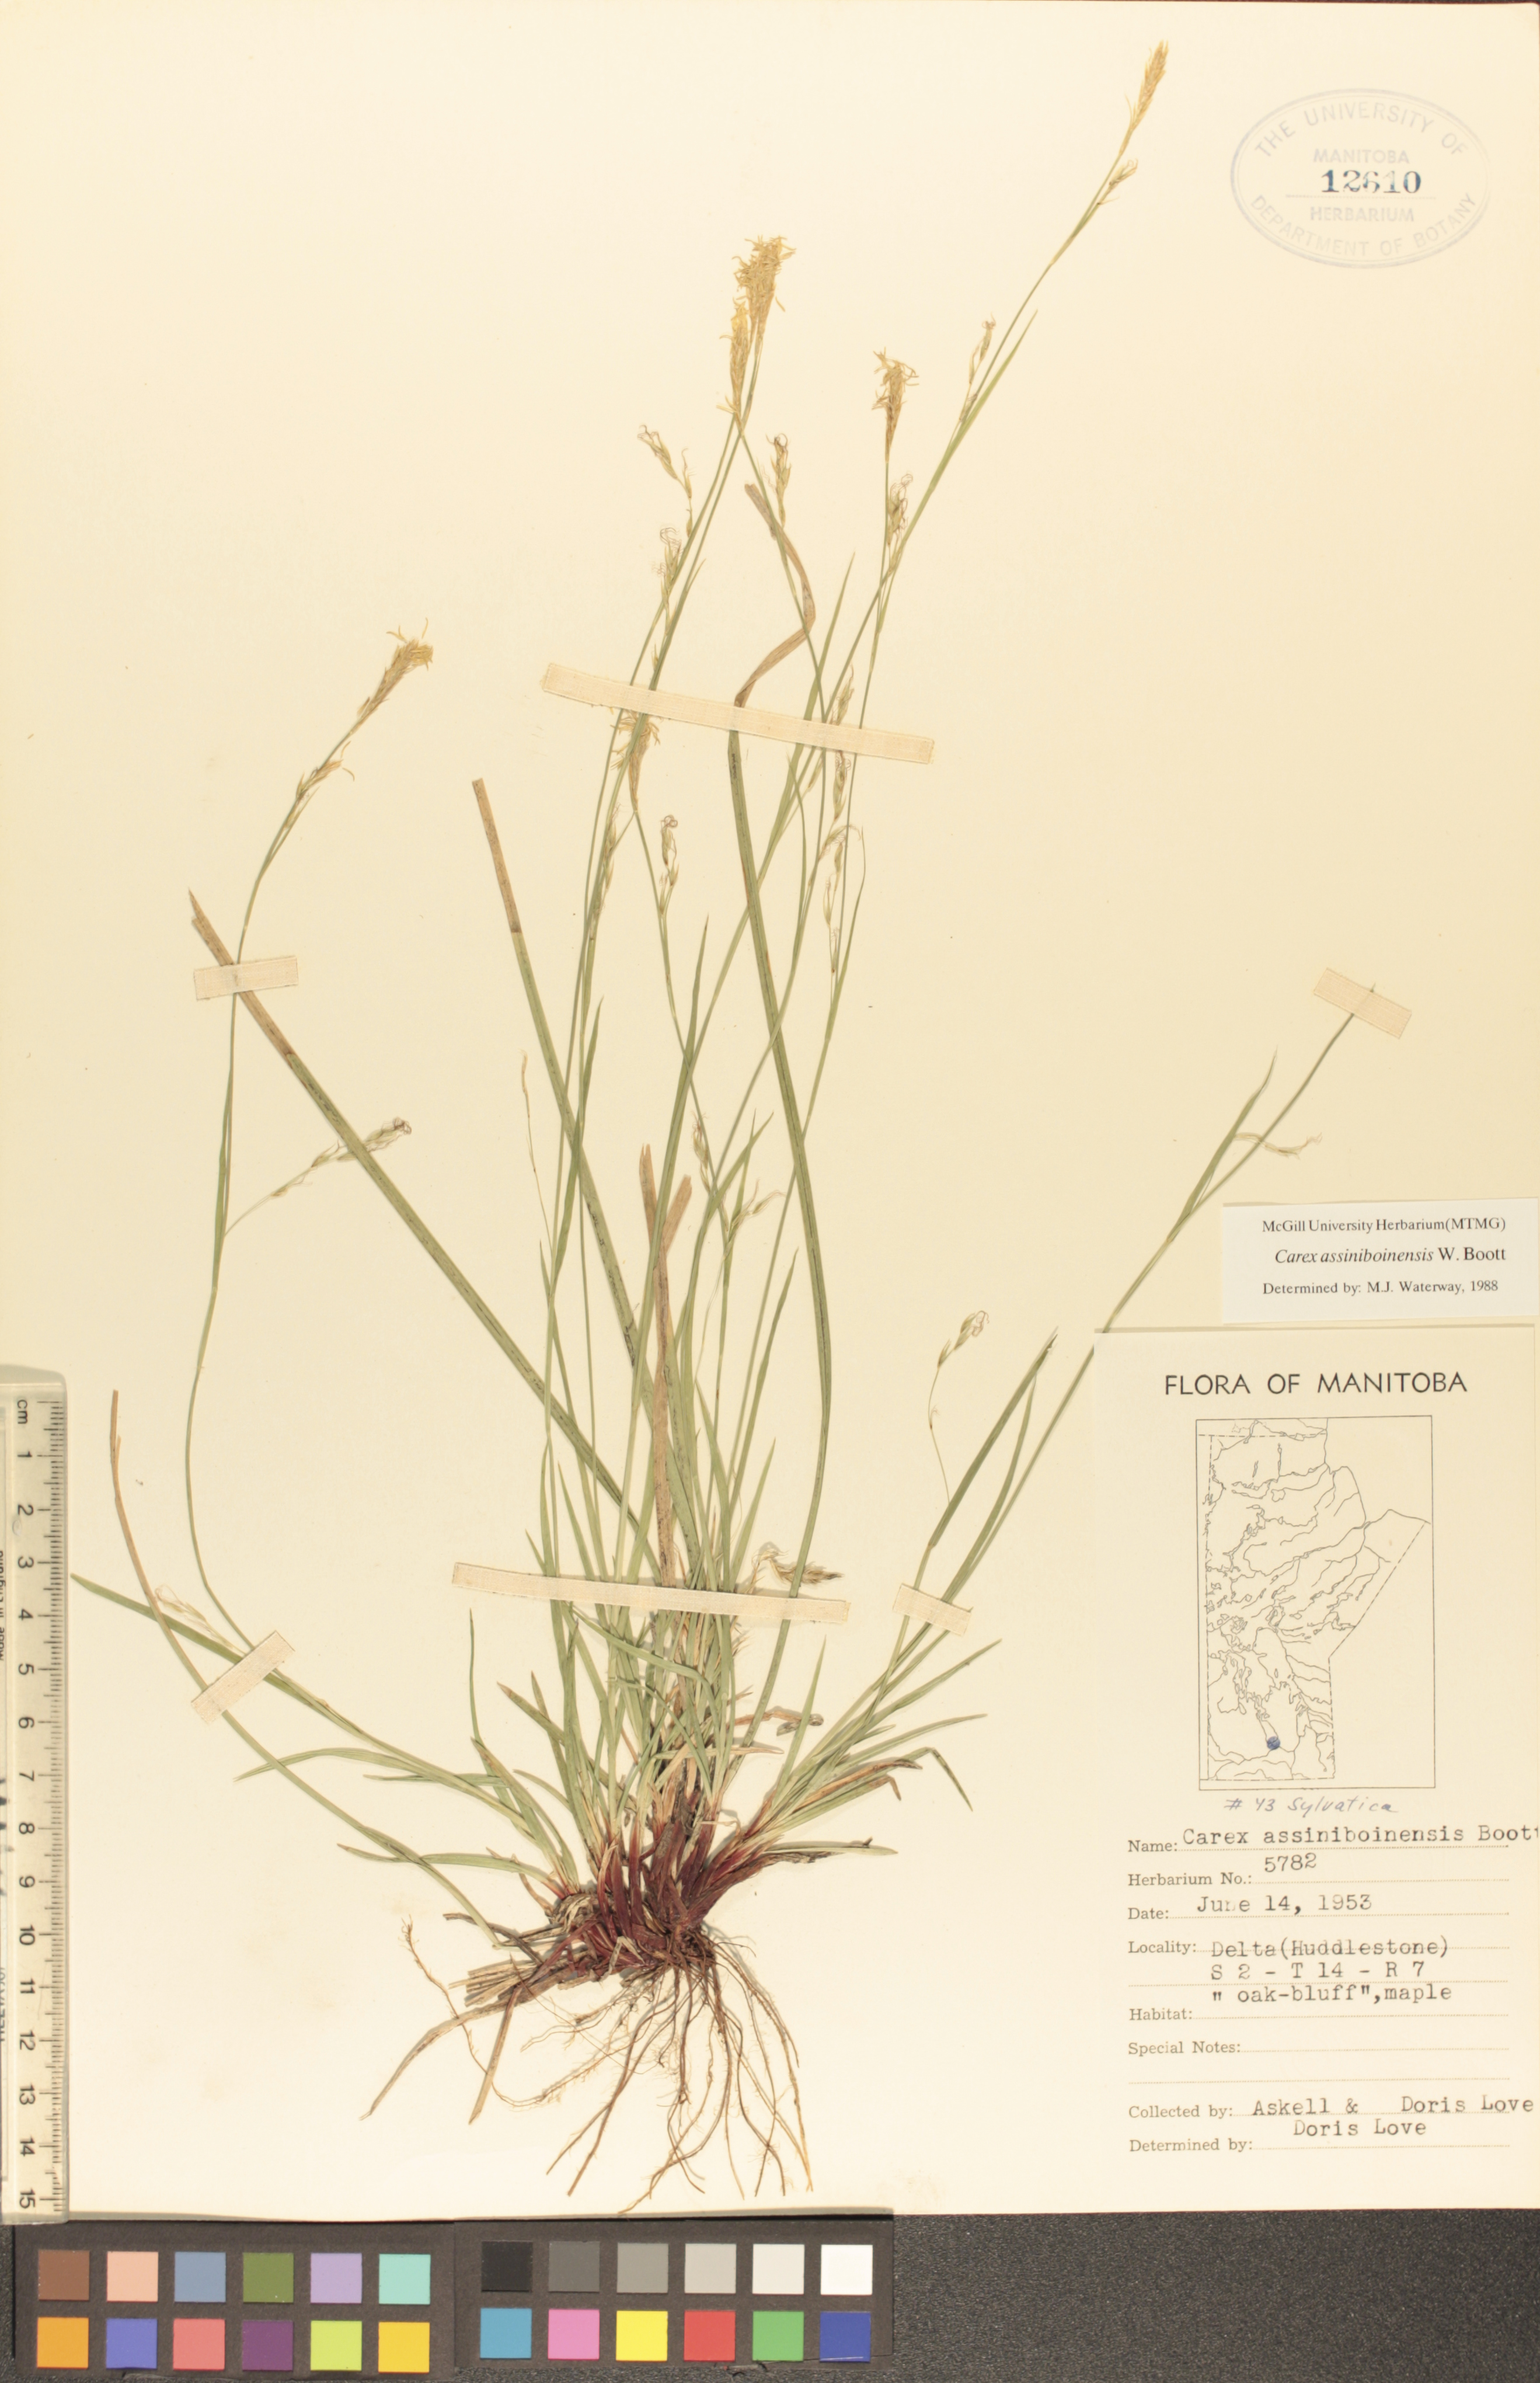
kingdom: Plantae
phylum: Tracheophyta
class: Liliopsida
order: Poales
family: Cyperaceae
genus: Carex
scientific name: Carex assiniboinensis
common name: Assiniboia sedge
